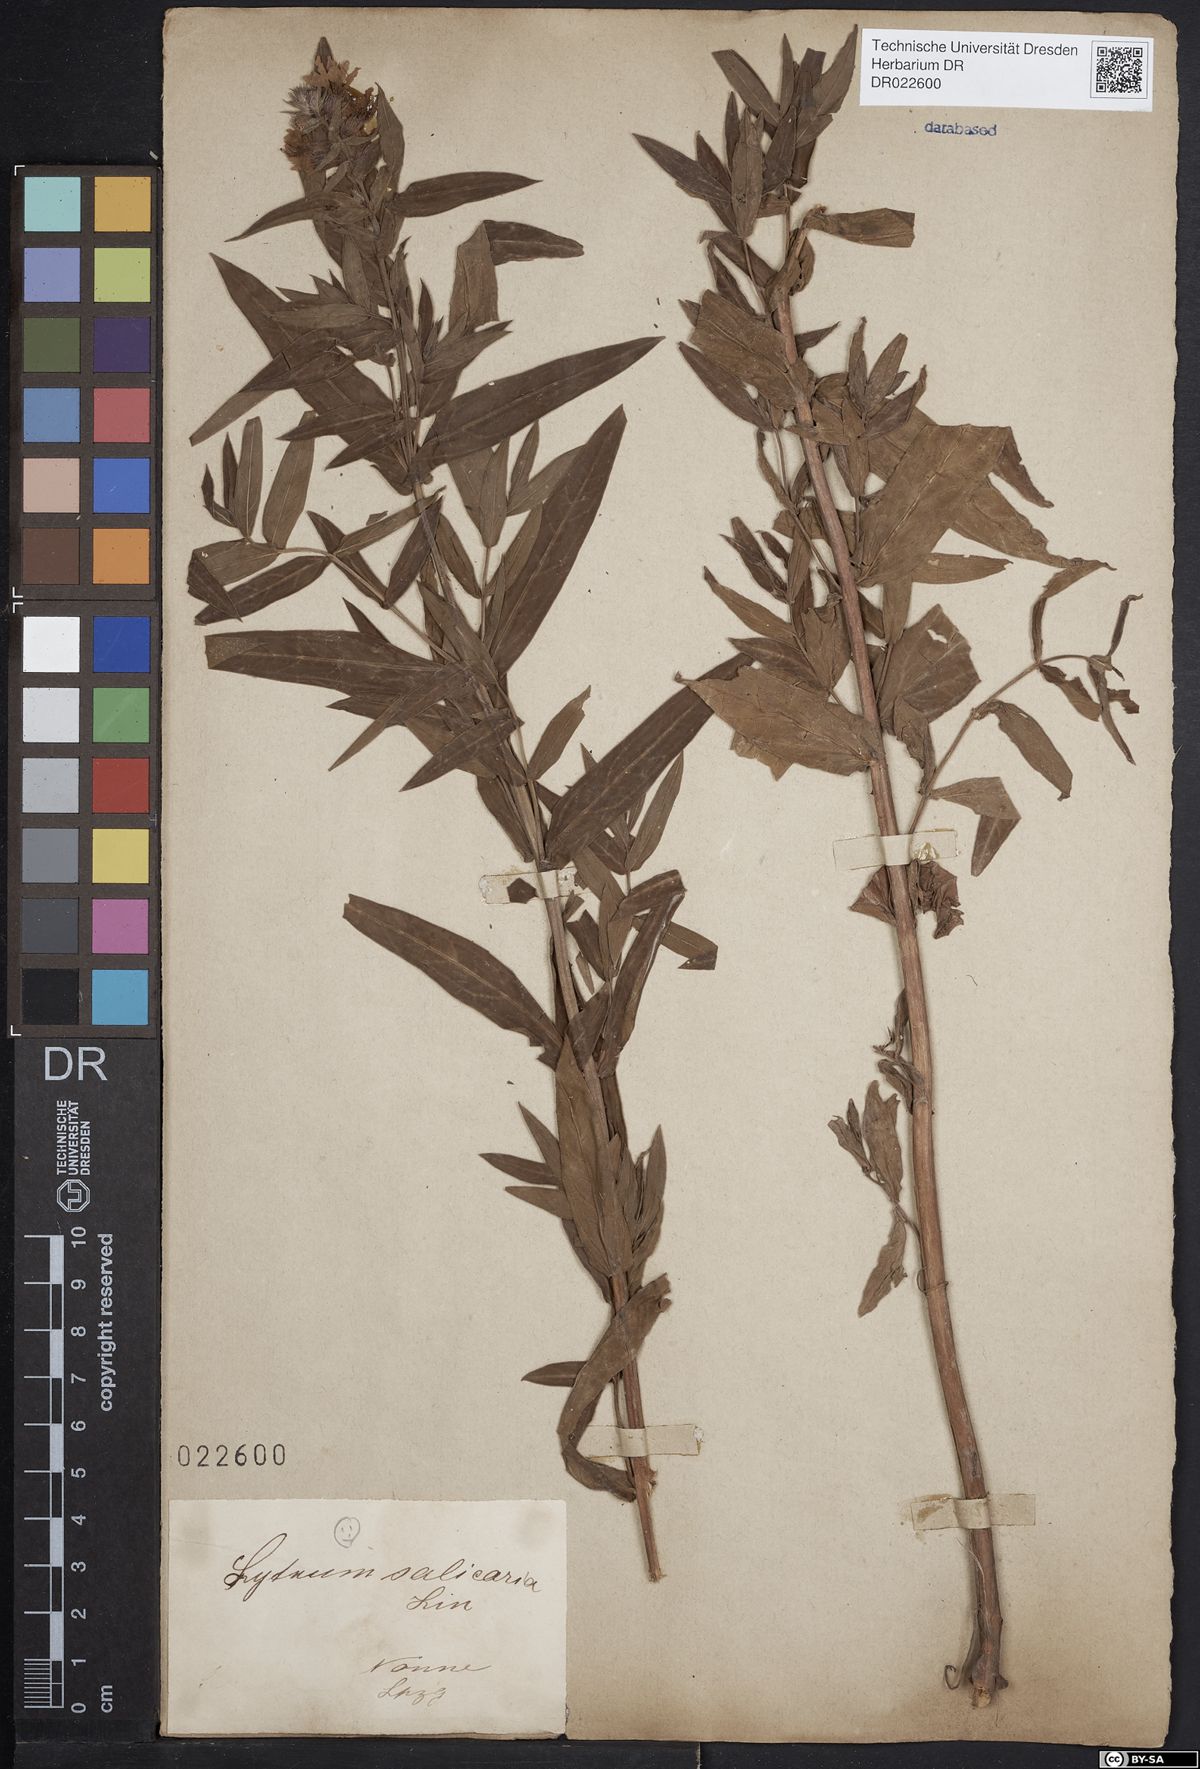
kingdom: Plantae
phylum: Tracheophyta
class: Magnoliopsida
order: Myrtales
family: Lythraceae
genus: Lythrum
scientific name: Lythrum salicaria
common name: Purple loosestrife
